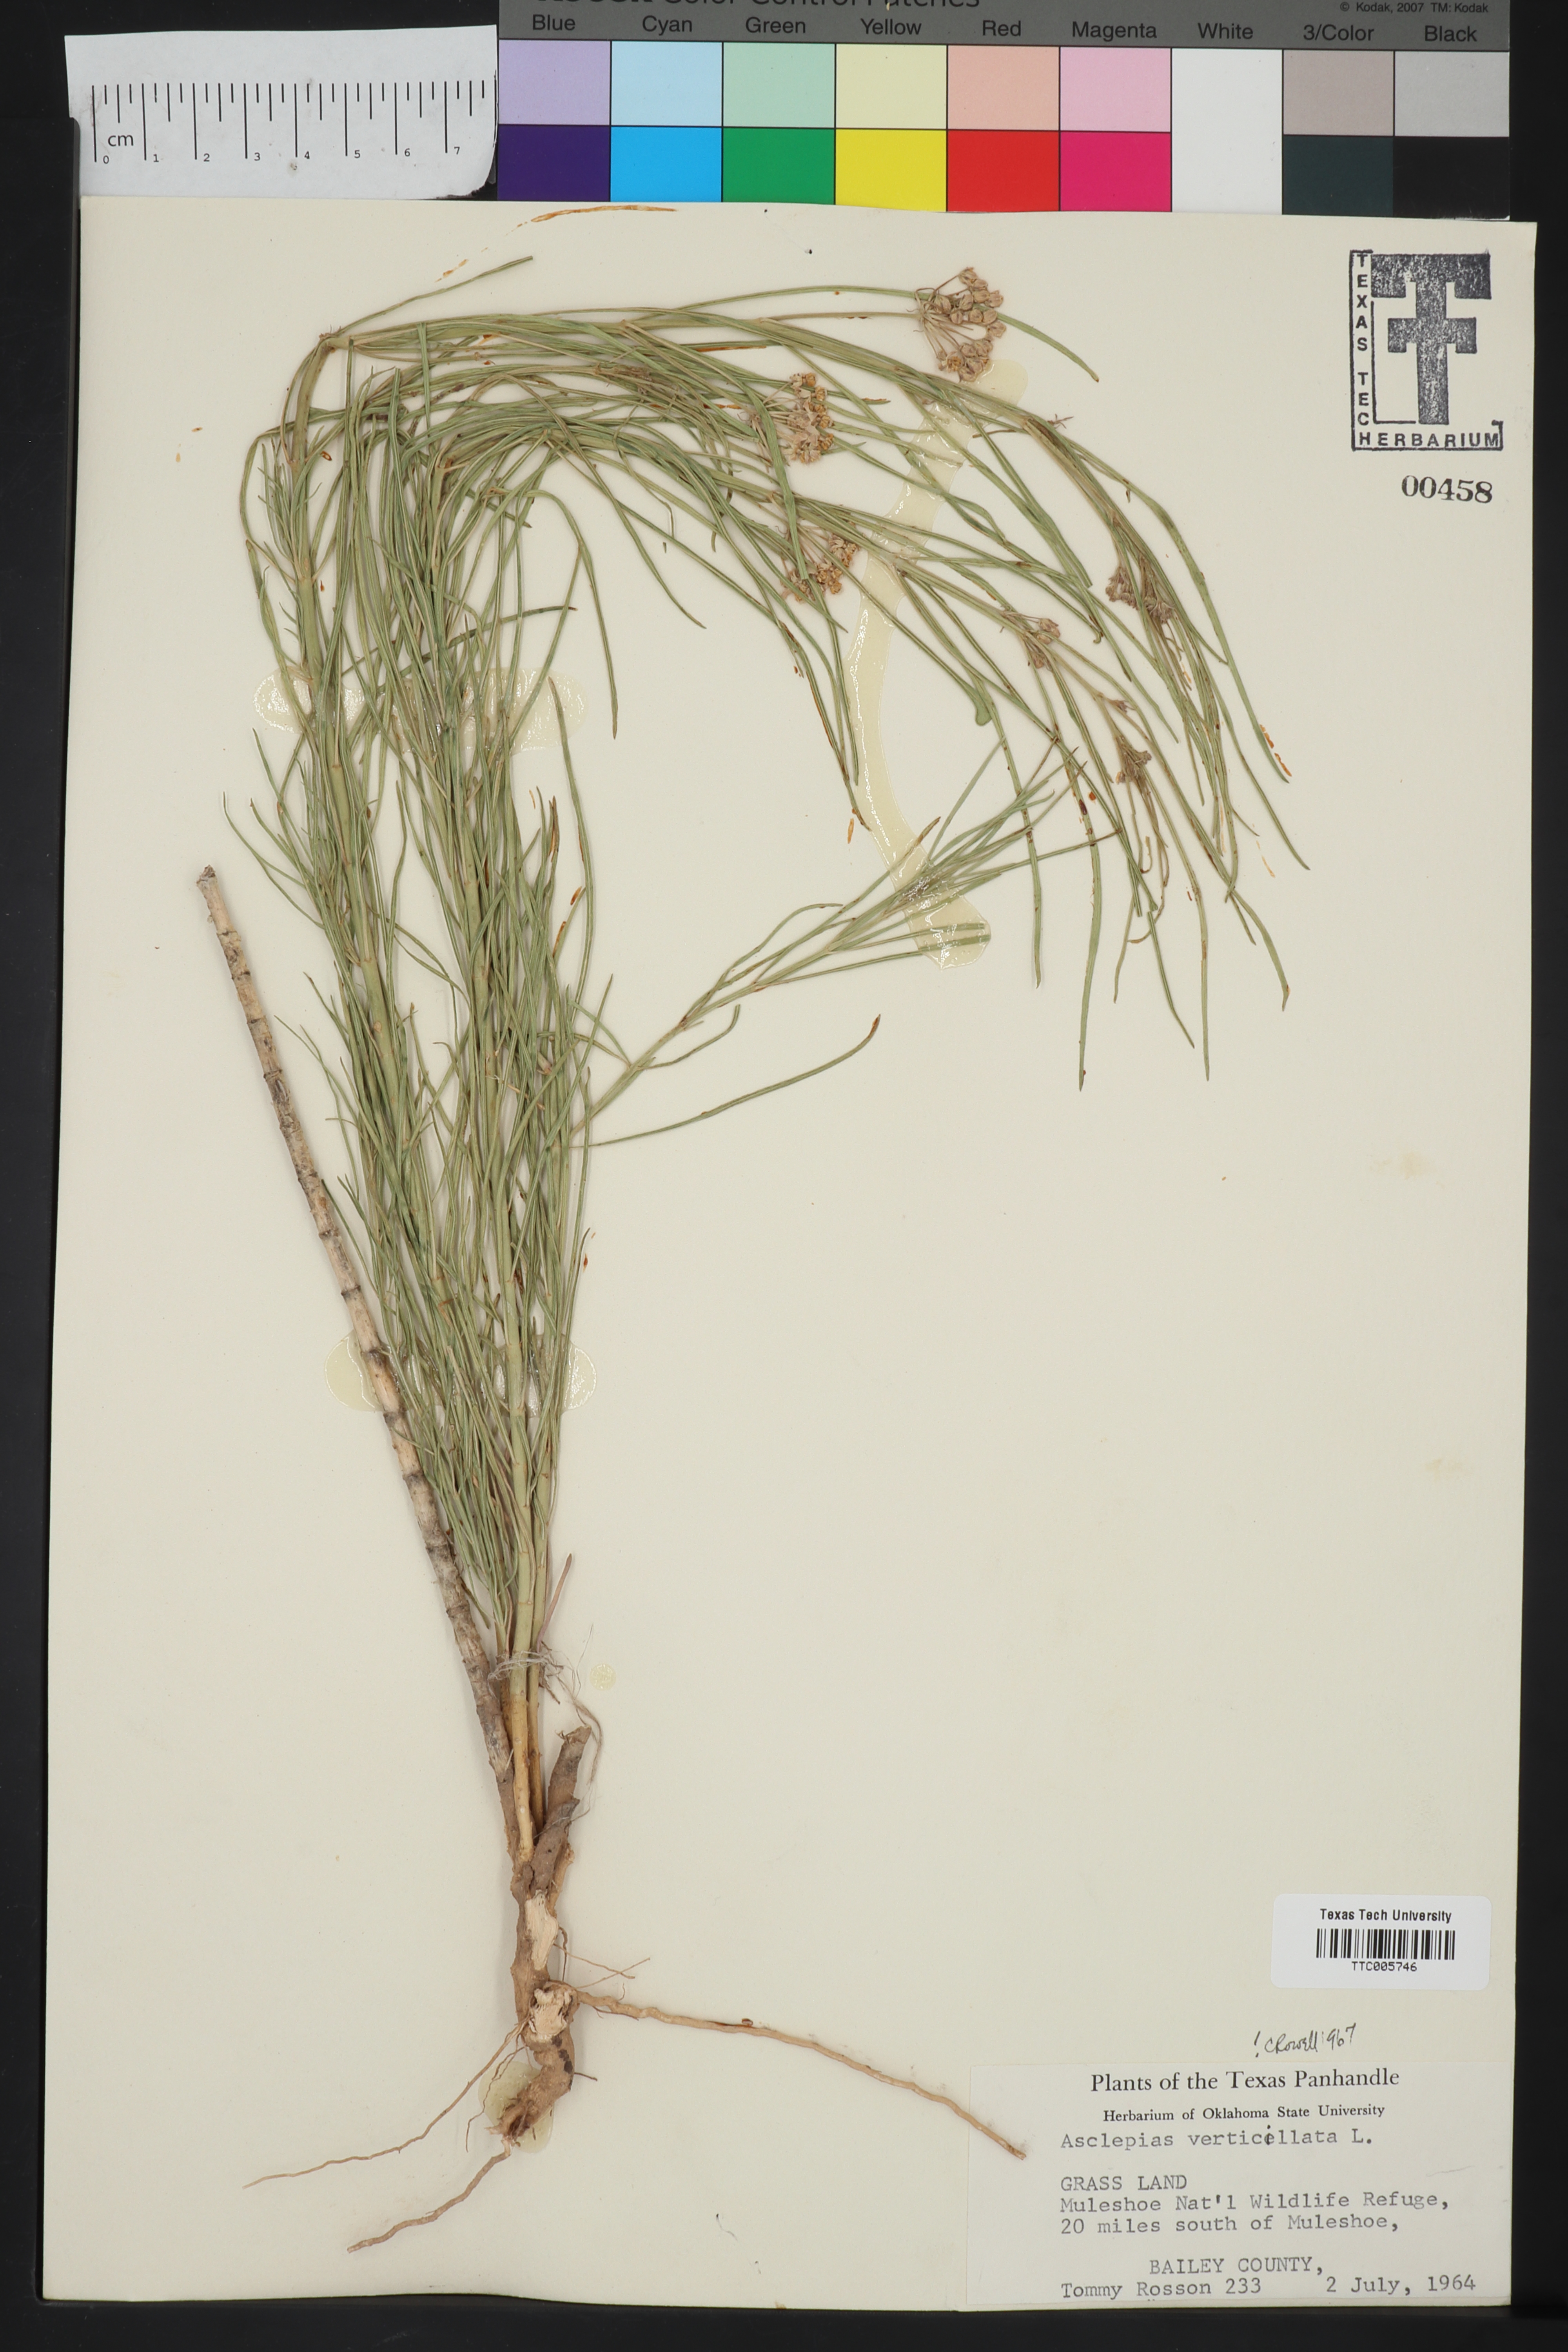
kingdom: Plantae
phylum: Tracheophyta
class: Magnoliopsida
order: Gentianales
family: Apocynaceae
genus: Asclepias
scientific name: Asclepias verticillata
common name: Eastern whorled milkweed
